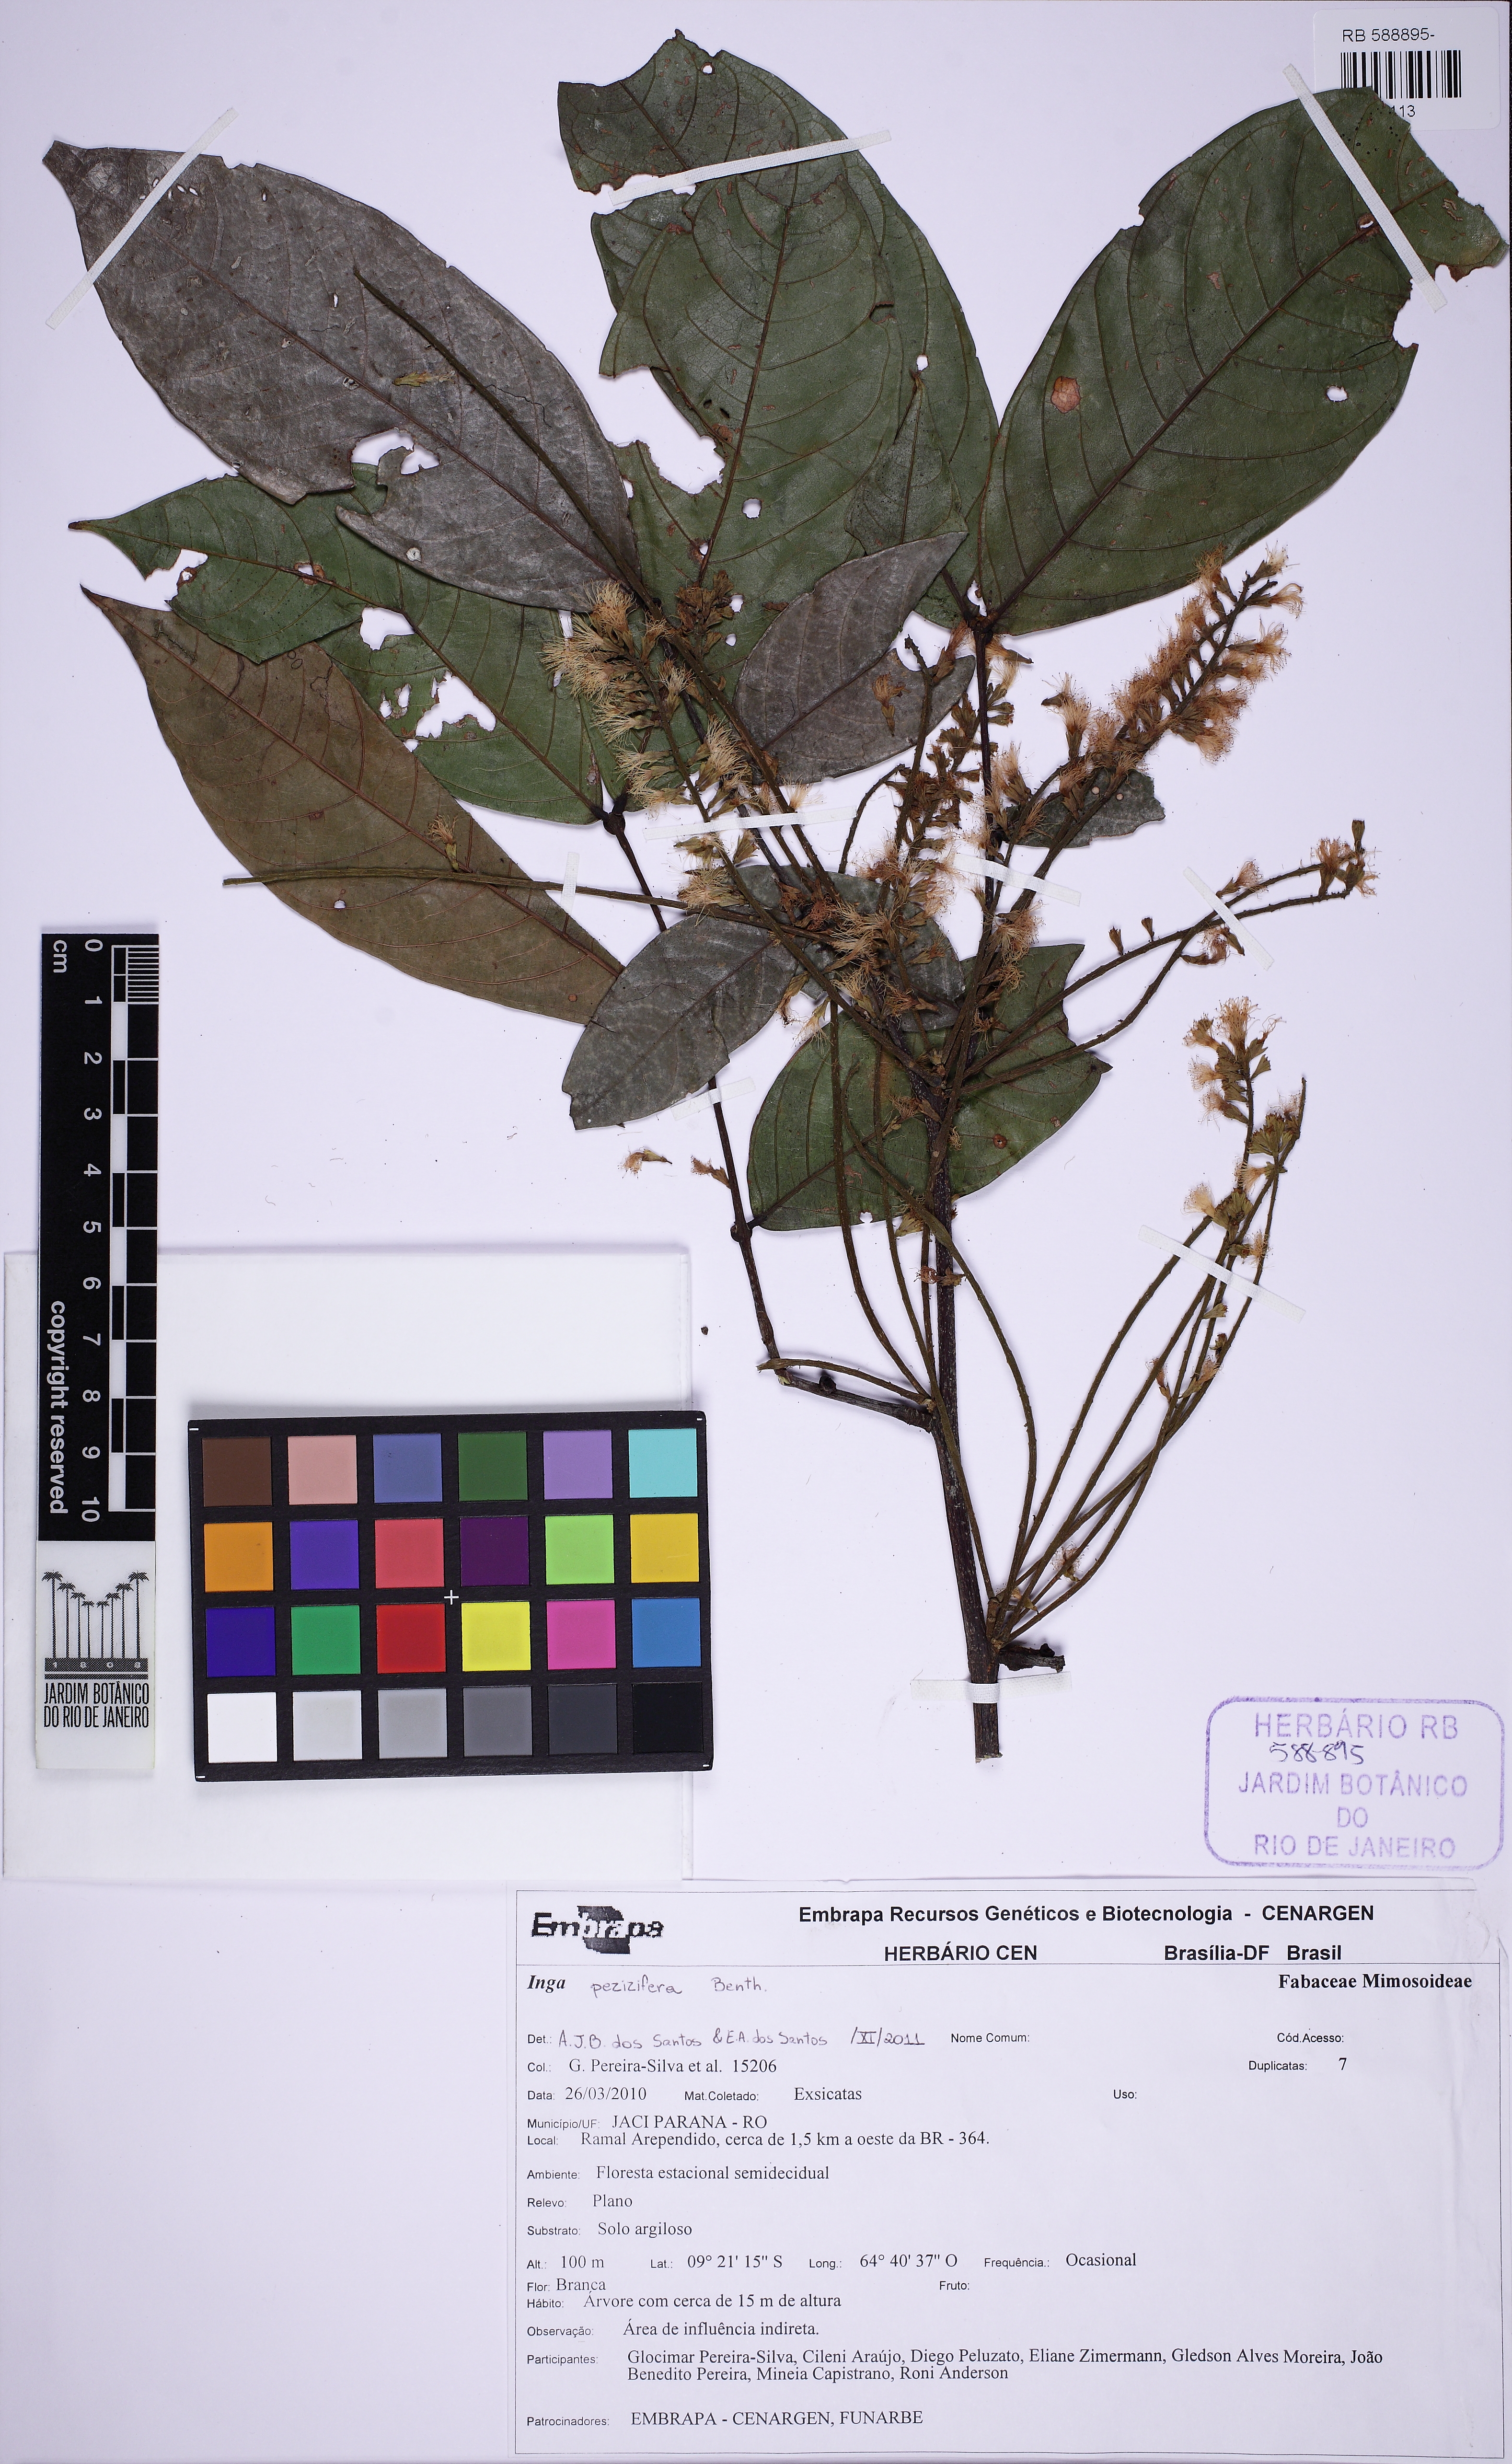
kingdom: Plantae
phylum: Tracheophyta
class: Magnoliopsida
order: Fabales
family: Fabaceae
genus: Inga
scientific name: Inga pezizifera
